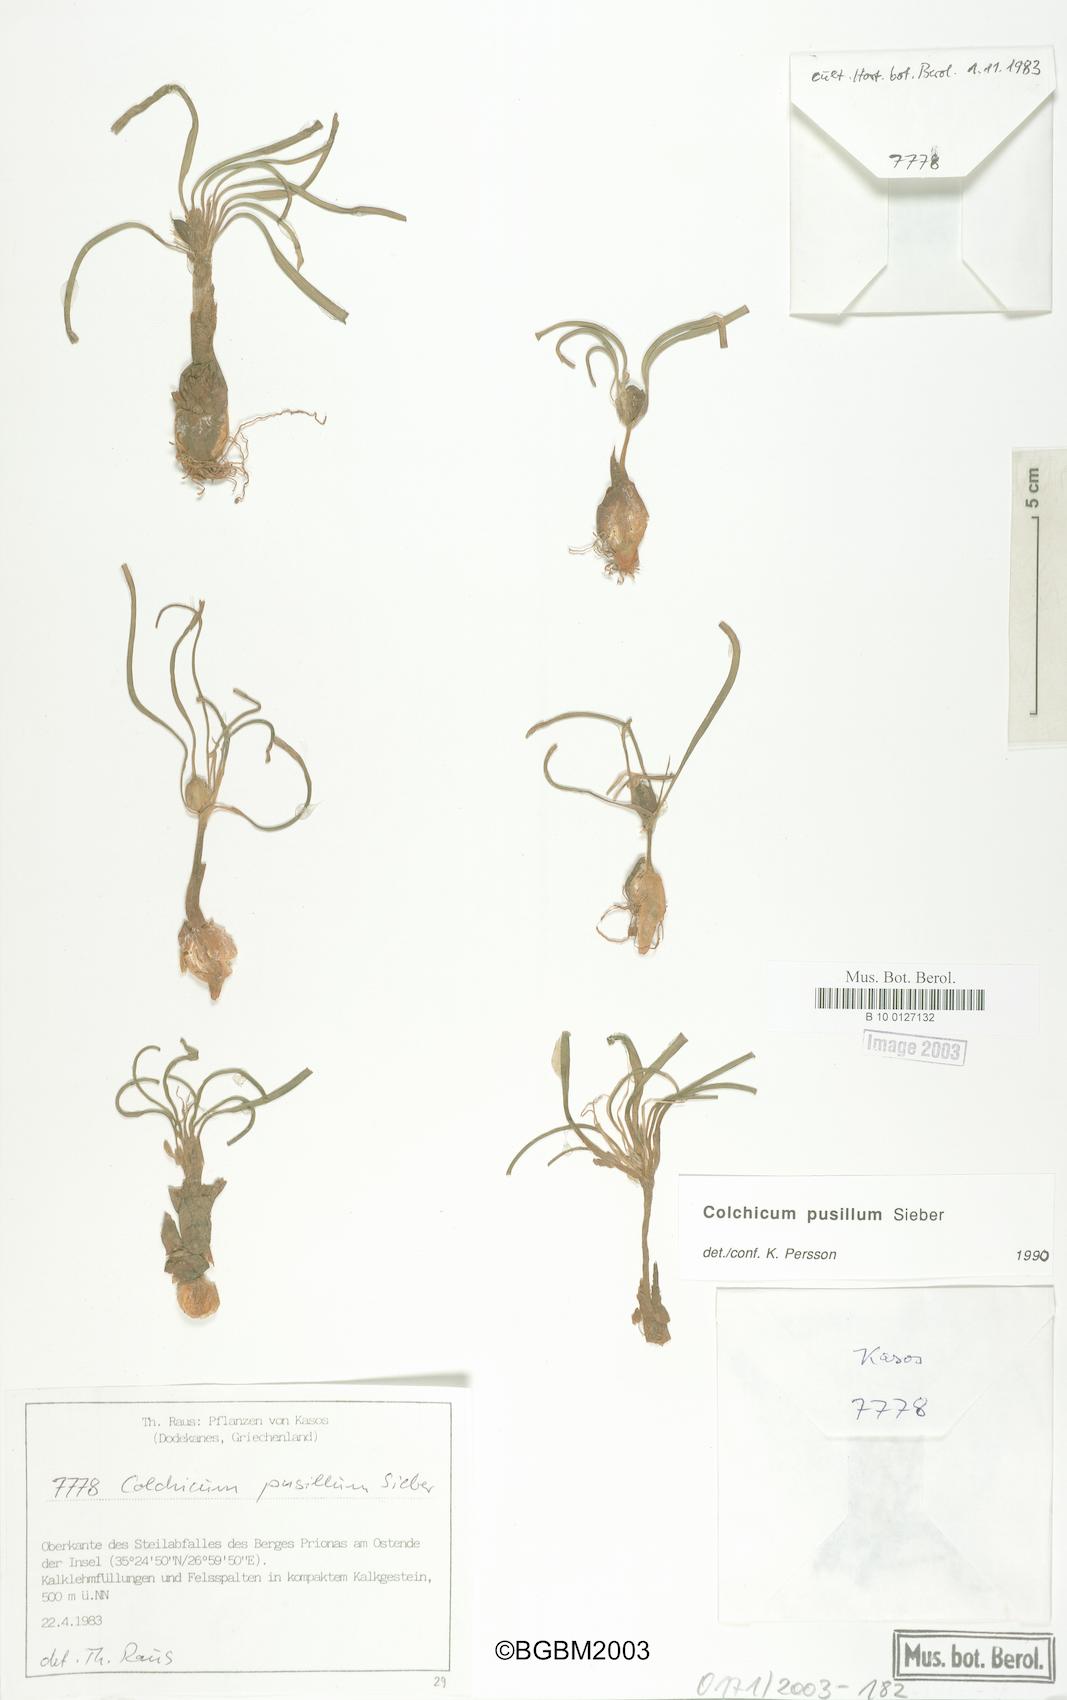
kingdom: Plantae
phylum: Tracheophyta
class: Liliopsida
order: Liliales
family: Colchicaceae
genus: Colchicum
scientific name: Colchicum pusillum
